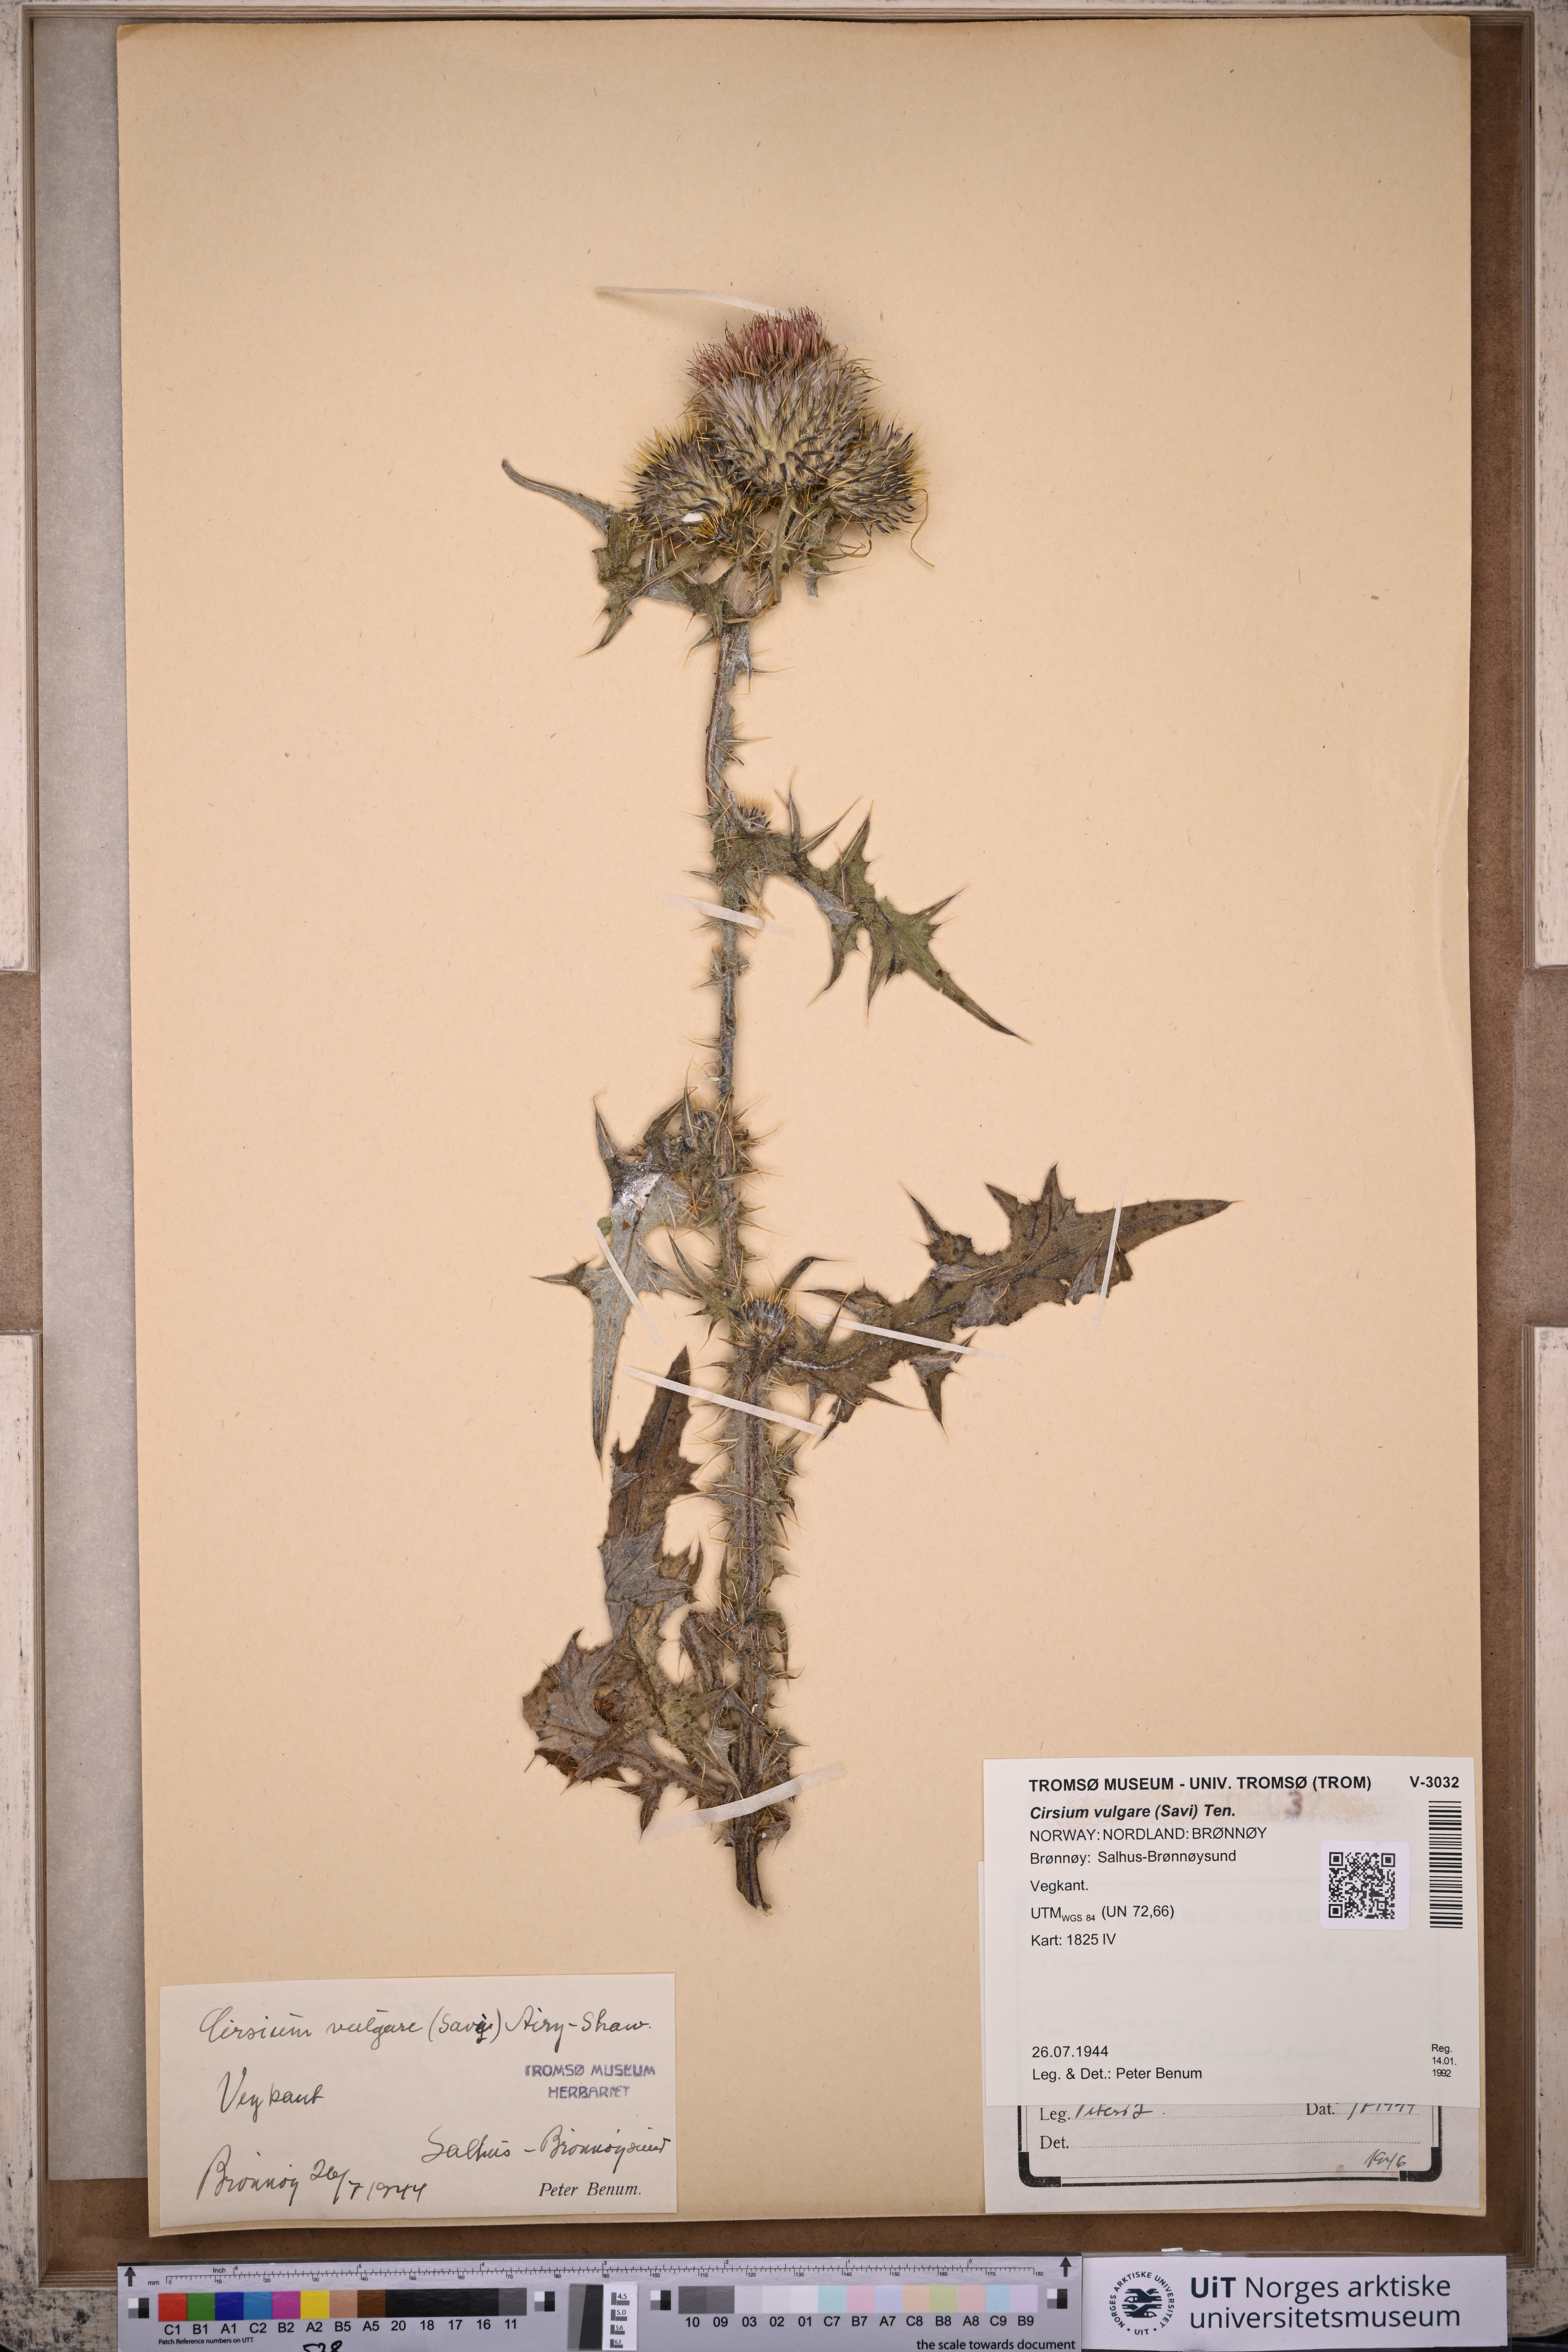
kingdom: Plantae
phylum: Tracheophyta
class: Magnoliopsida
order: Asterales
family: Asteraceae
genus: Cirsium
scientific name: Cirsium vulgare
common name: Bull thistle
